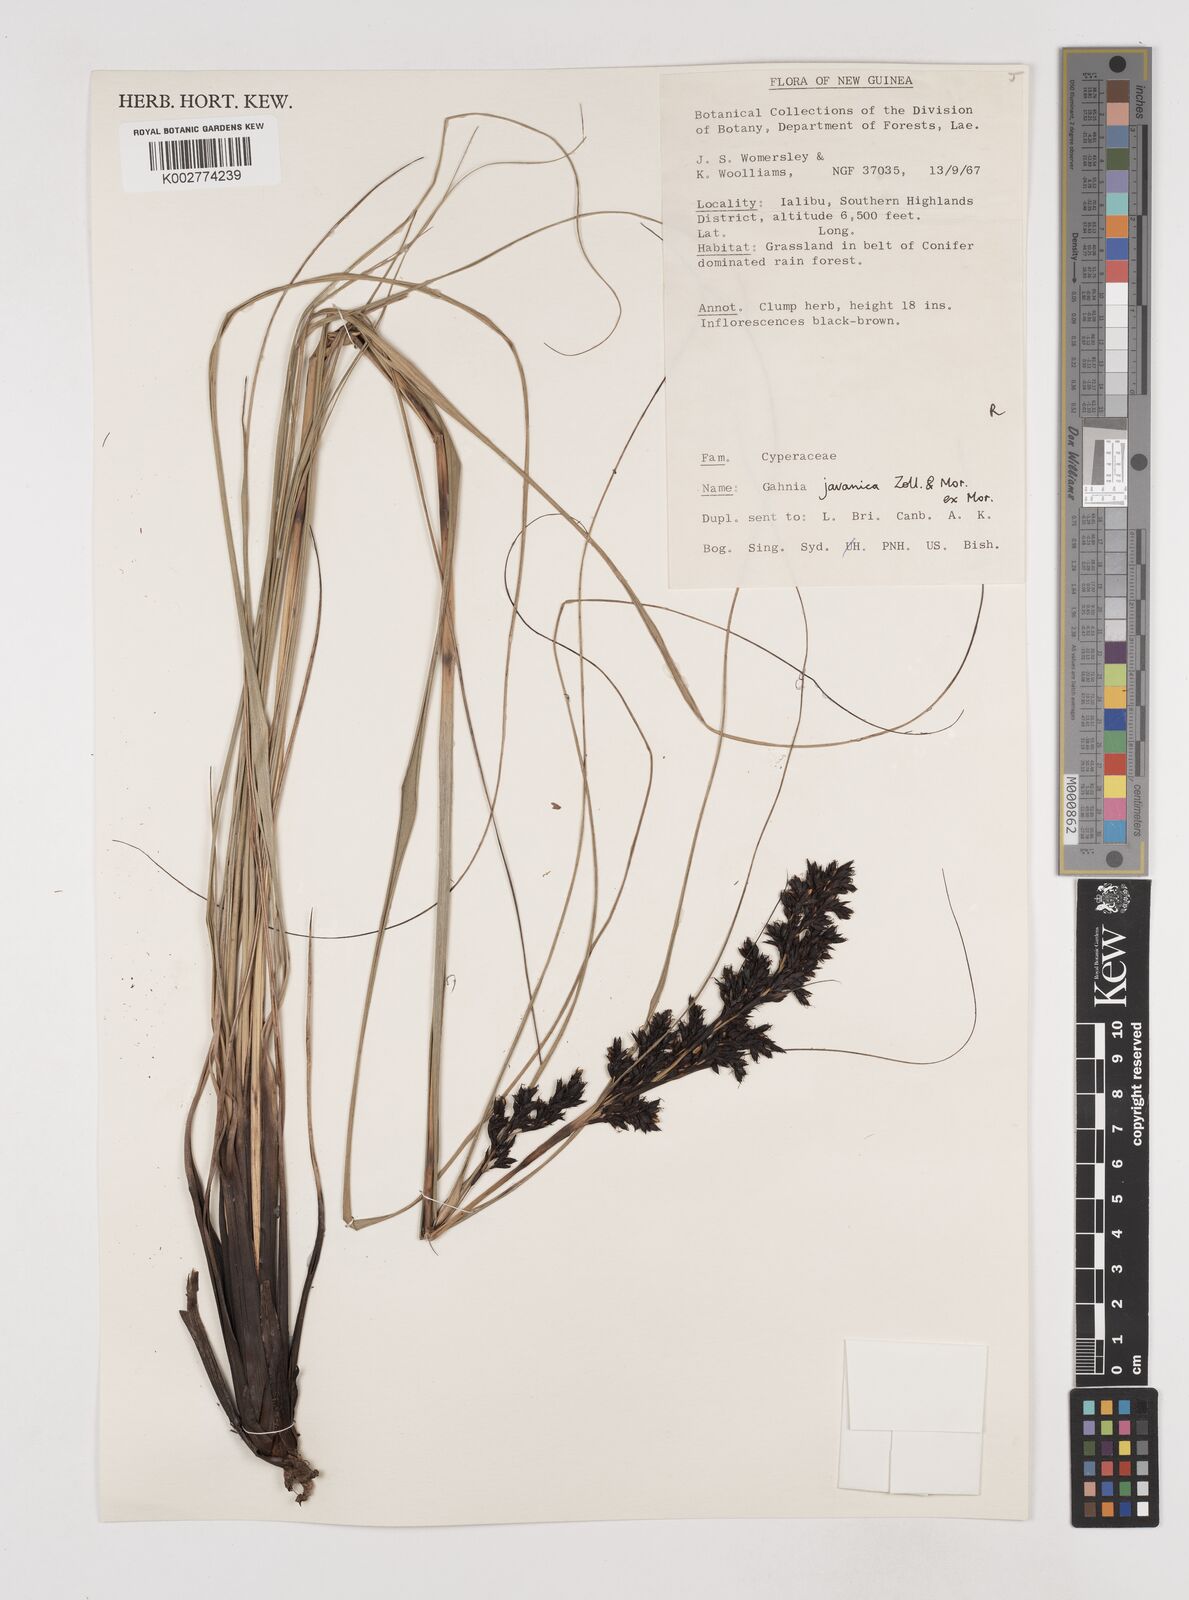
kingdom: Plantae
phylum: Tracheophyta
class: Liliopsida
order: Poales
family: Cyperaceae
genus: Gahnia
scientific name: Gahnia javanica
